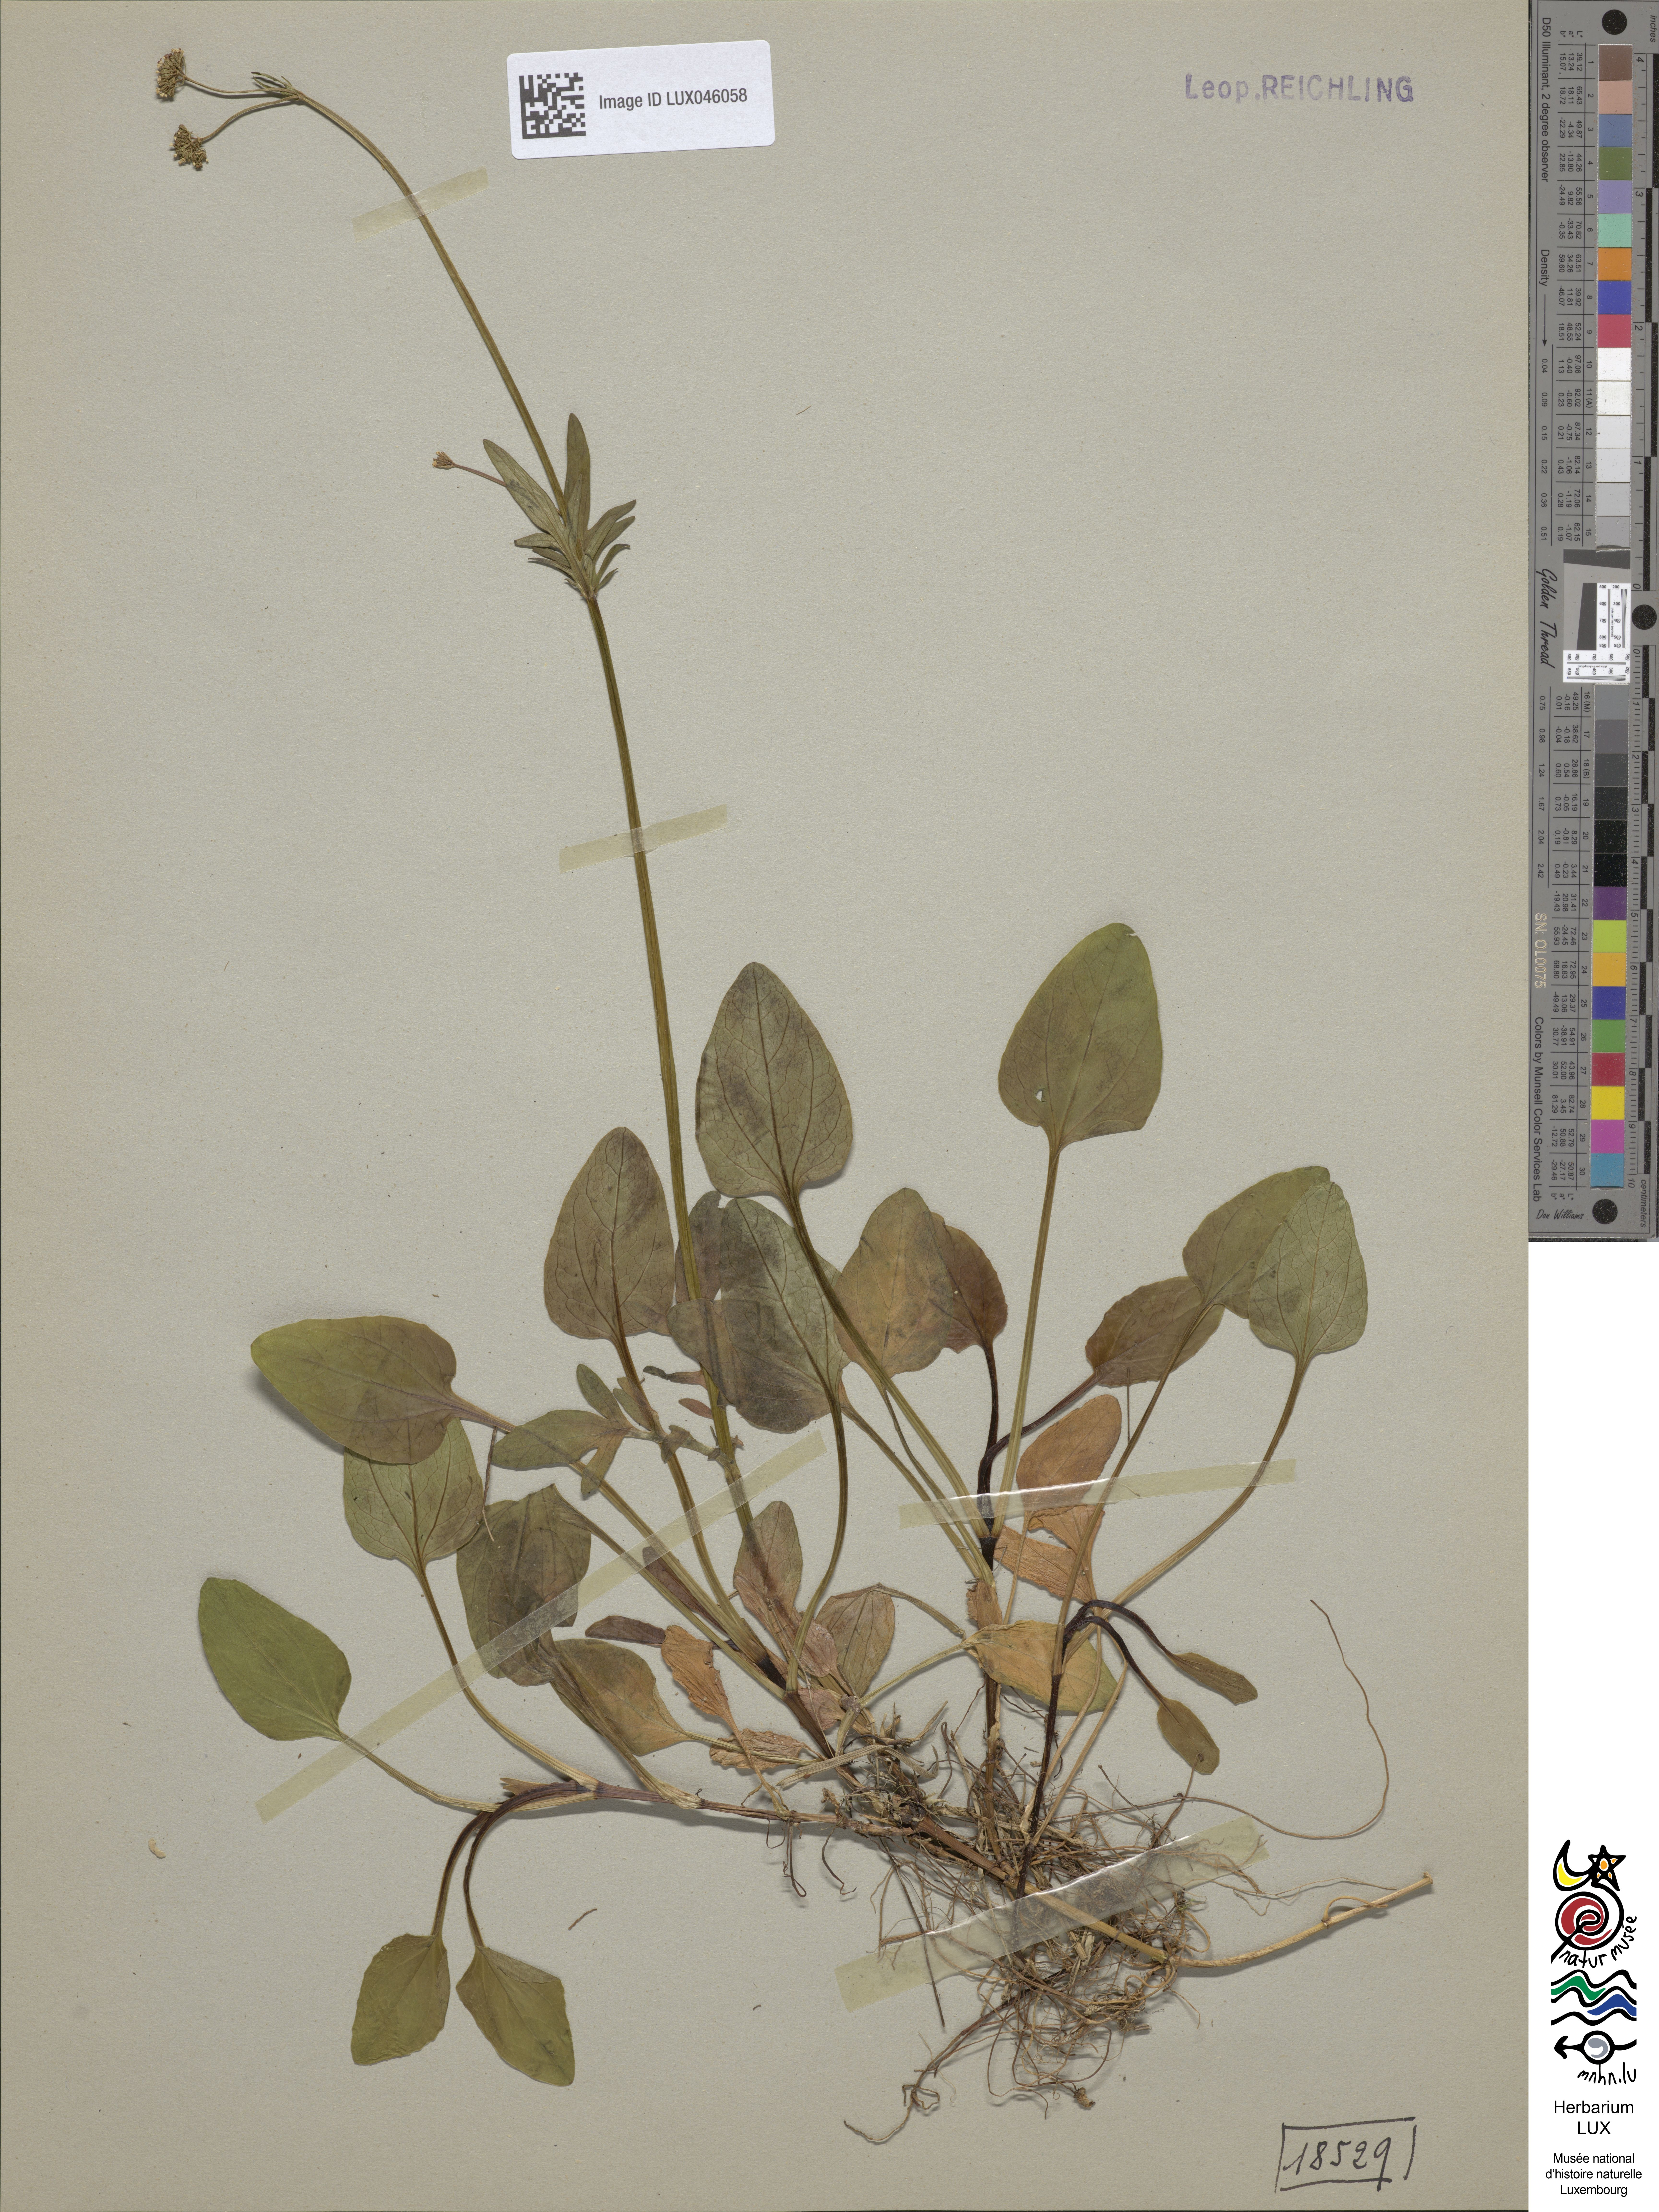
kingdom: Plantae
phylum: Tracheophyta
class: Magnoliopsida
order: Dipsacales
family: Caprifoliaceae
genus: Valeriana
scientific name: Valeriana dioica
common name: Marsh valerian
